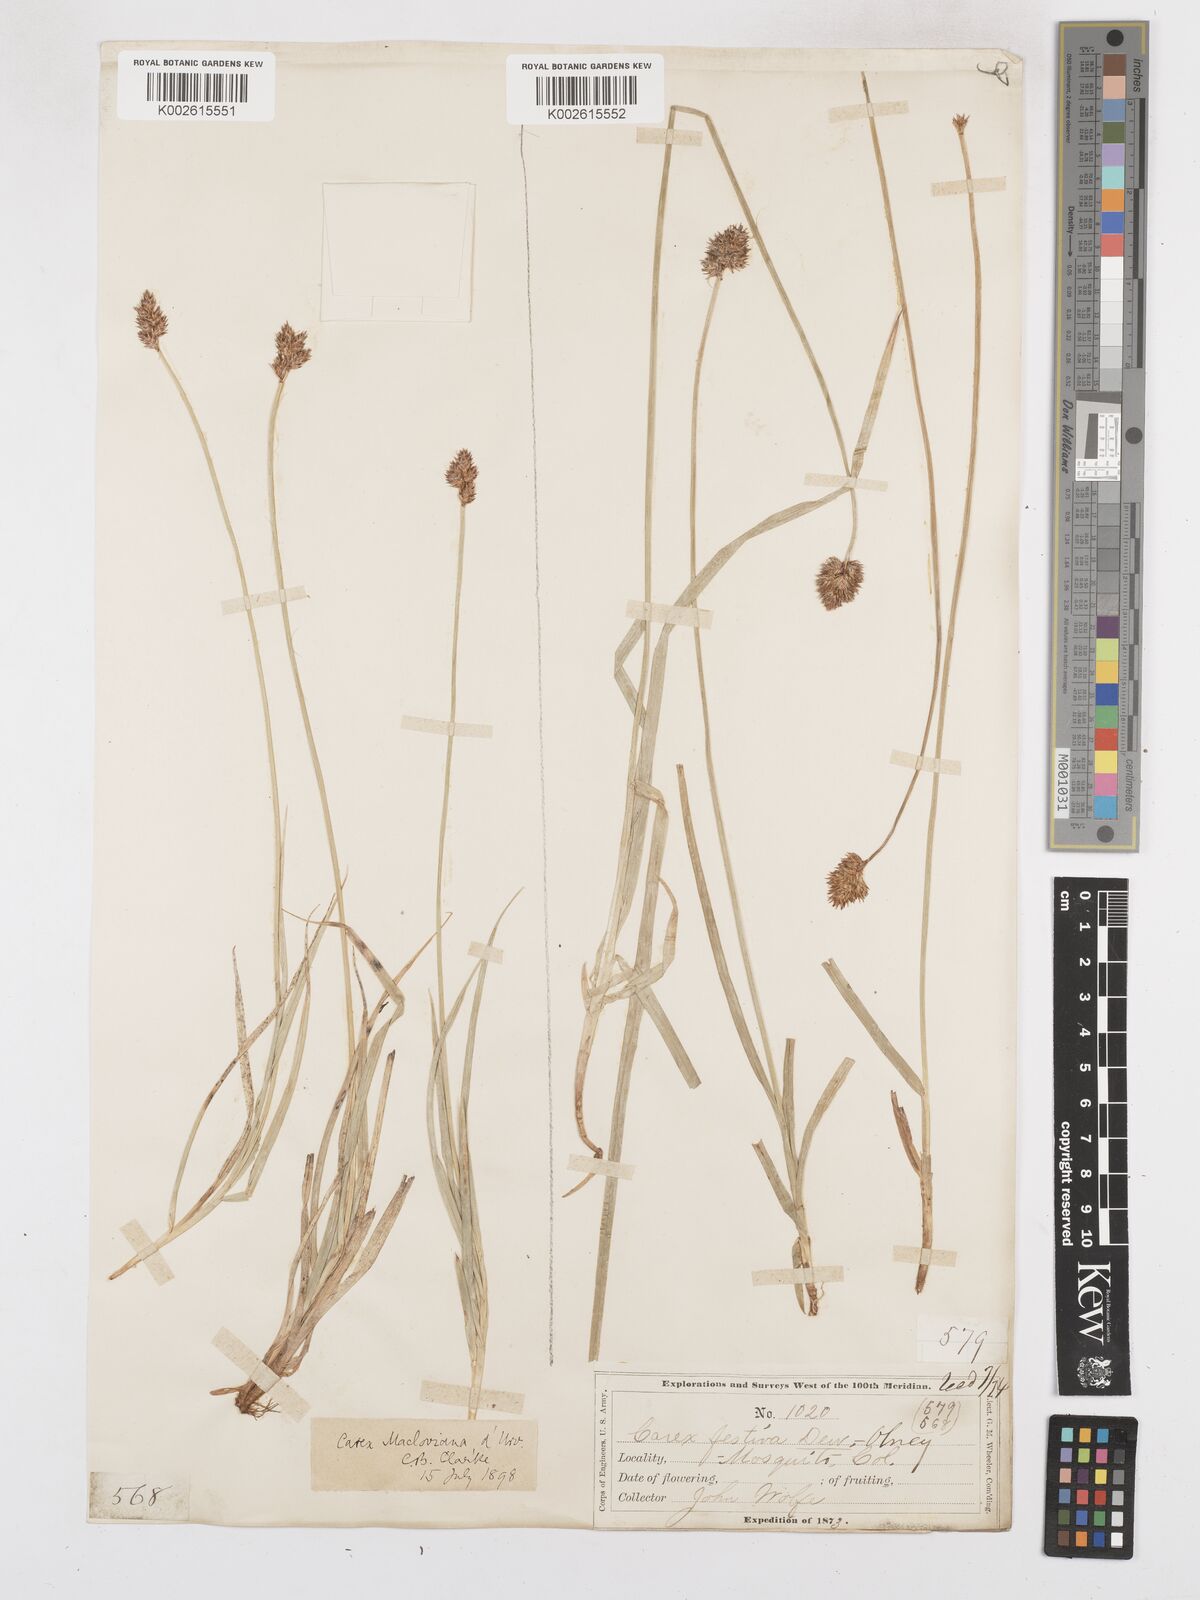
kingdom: Plantae
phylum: Tracheophyta
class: Liliopsida
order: Poales
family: Cyperaceae
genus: Carex
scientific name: Carex macloviana
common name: Falkland island sedge
